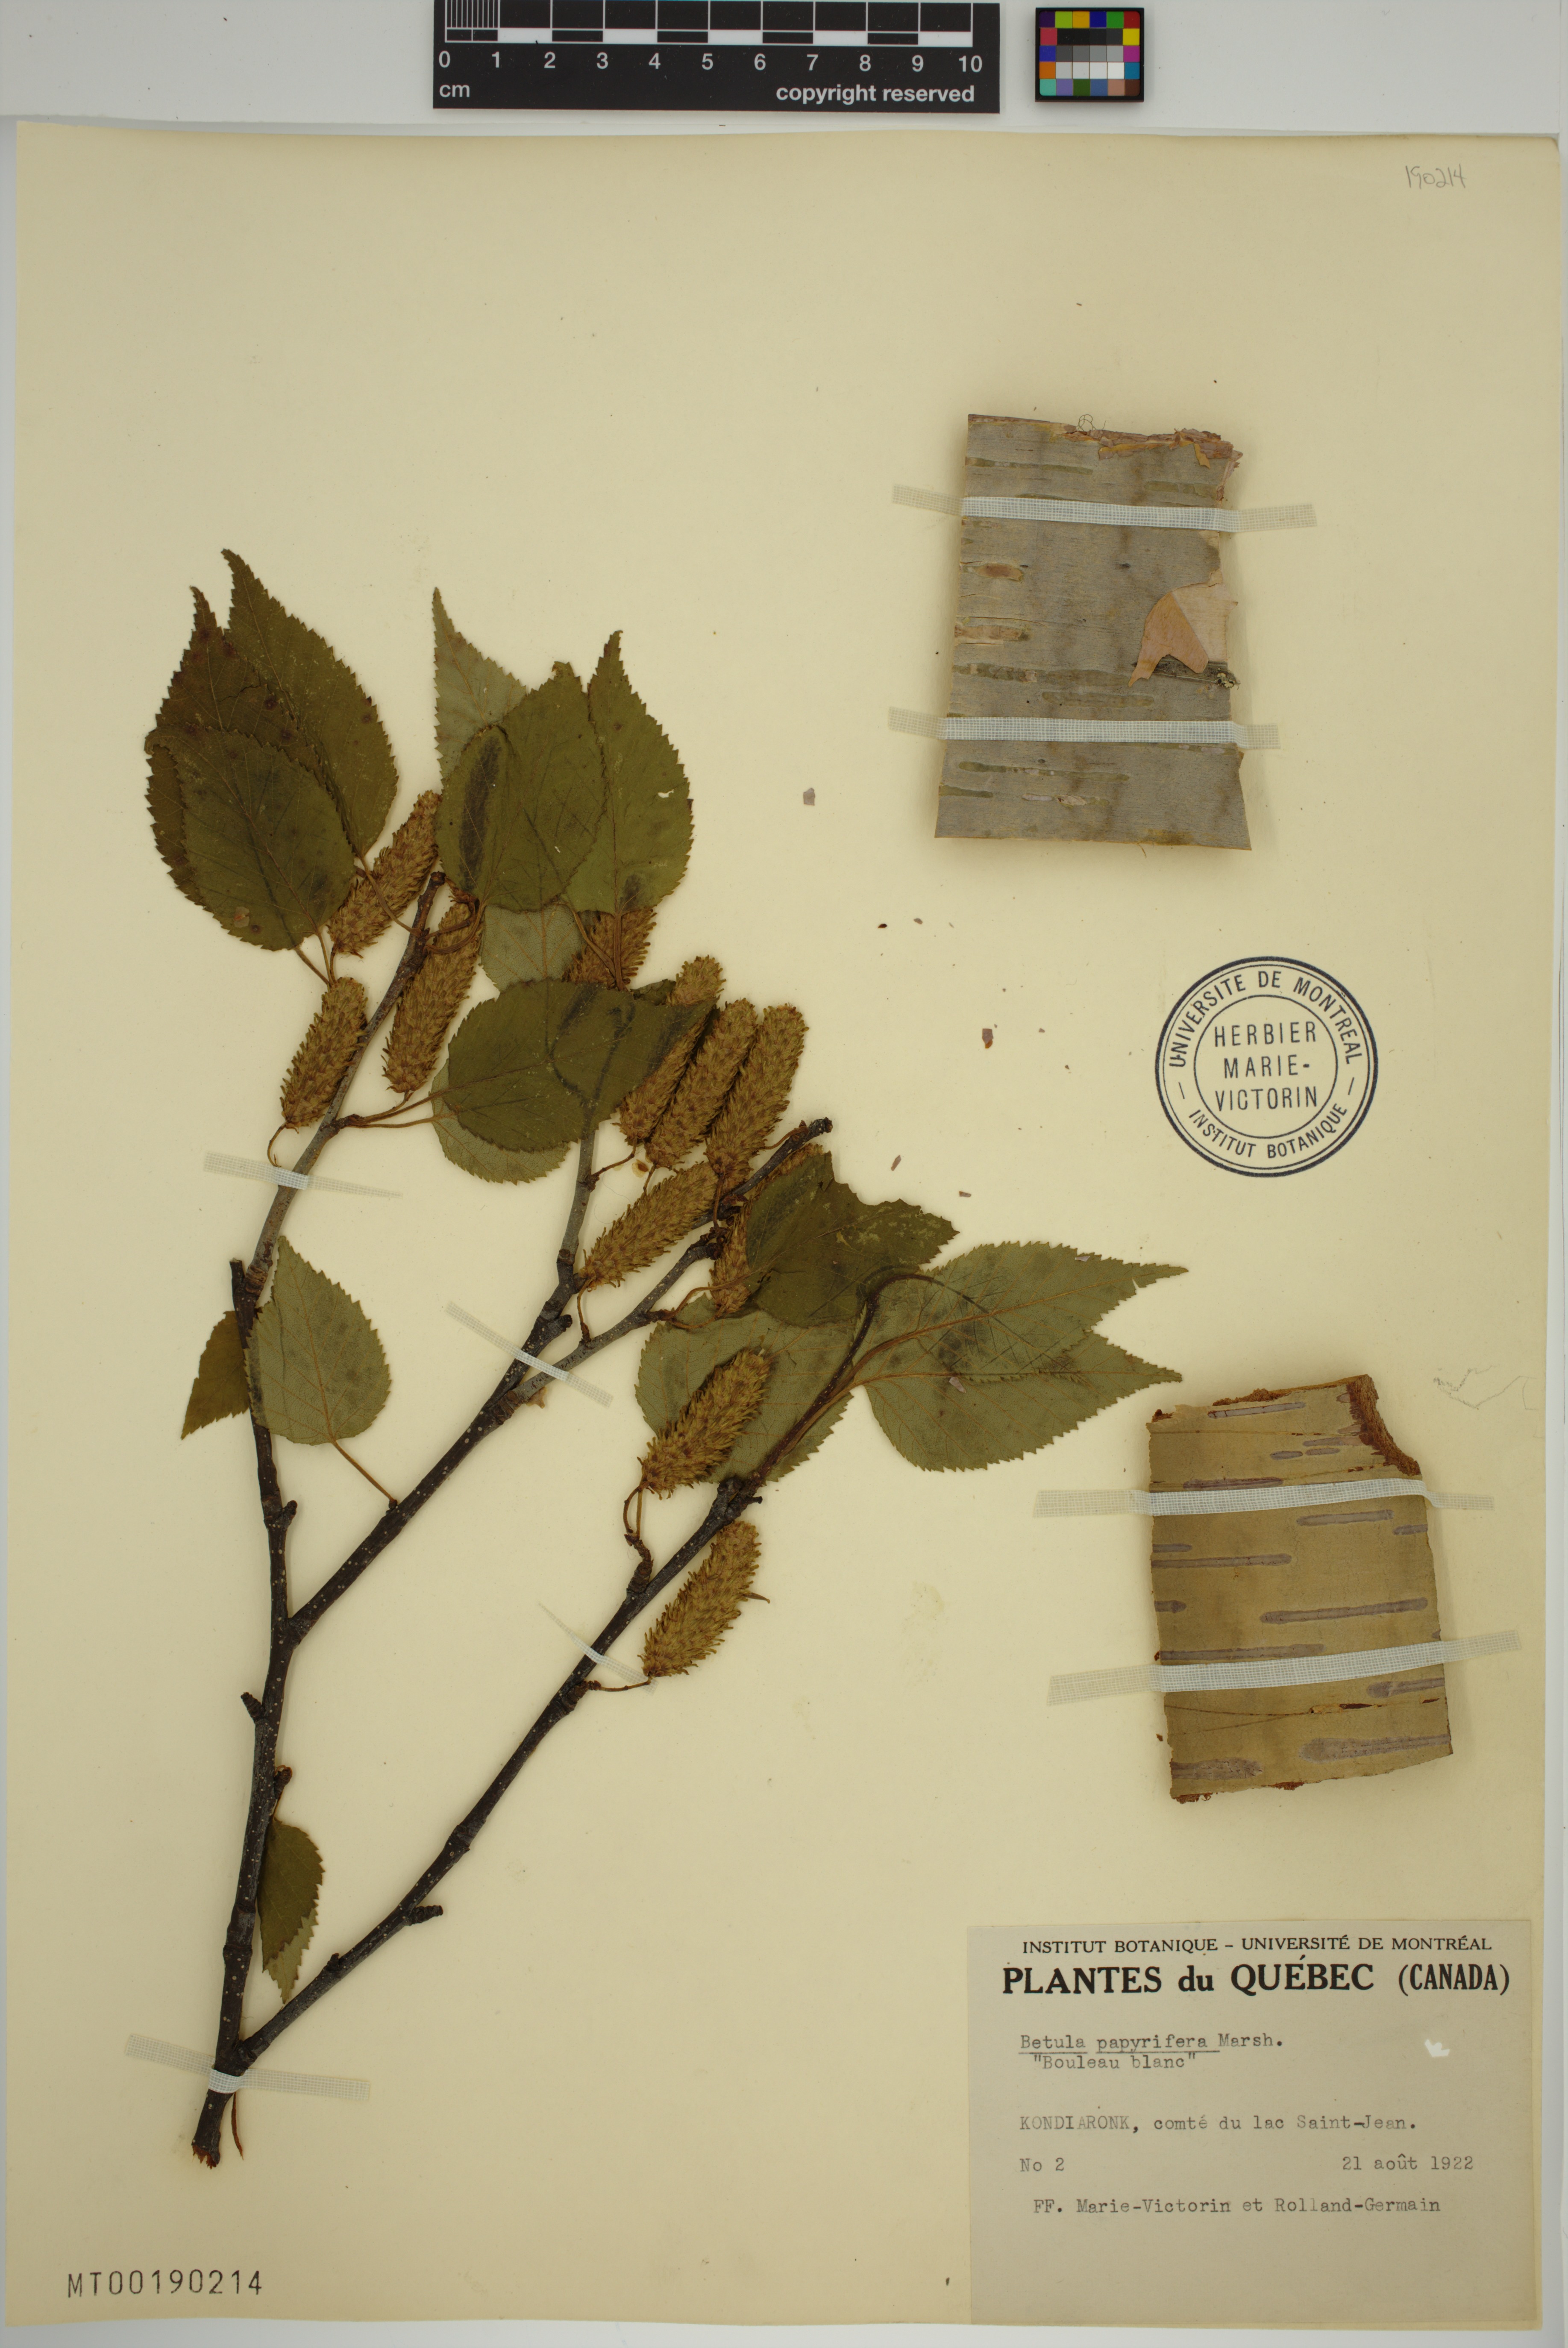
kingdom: Plantae
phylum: Tracheophyta
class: Magnoliopsida
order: Fagales
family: Betulaceae
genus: Betula
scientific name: Betula papyrifera
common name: Paper birch
